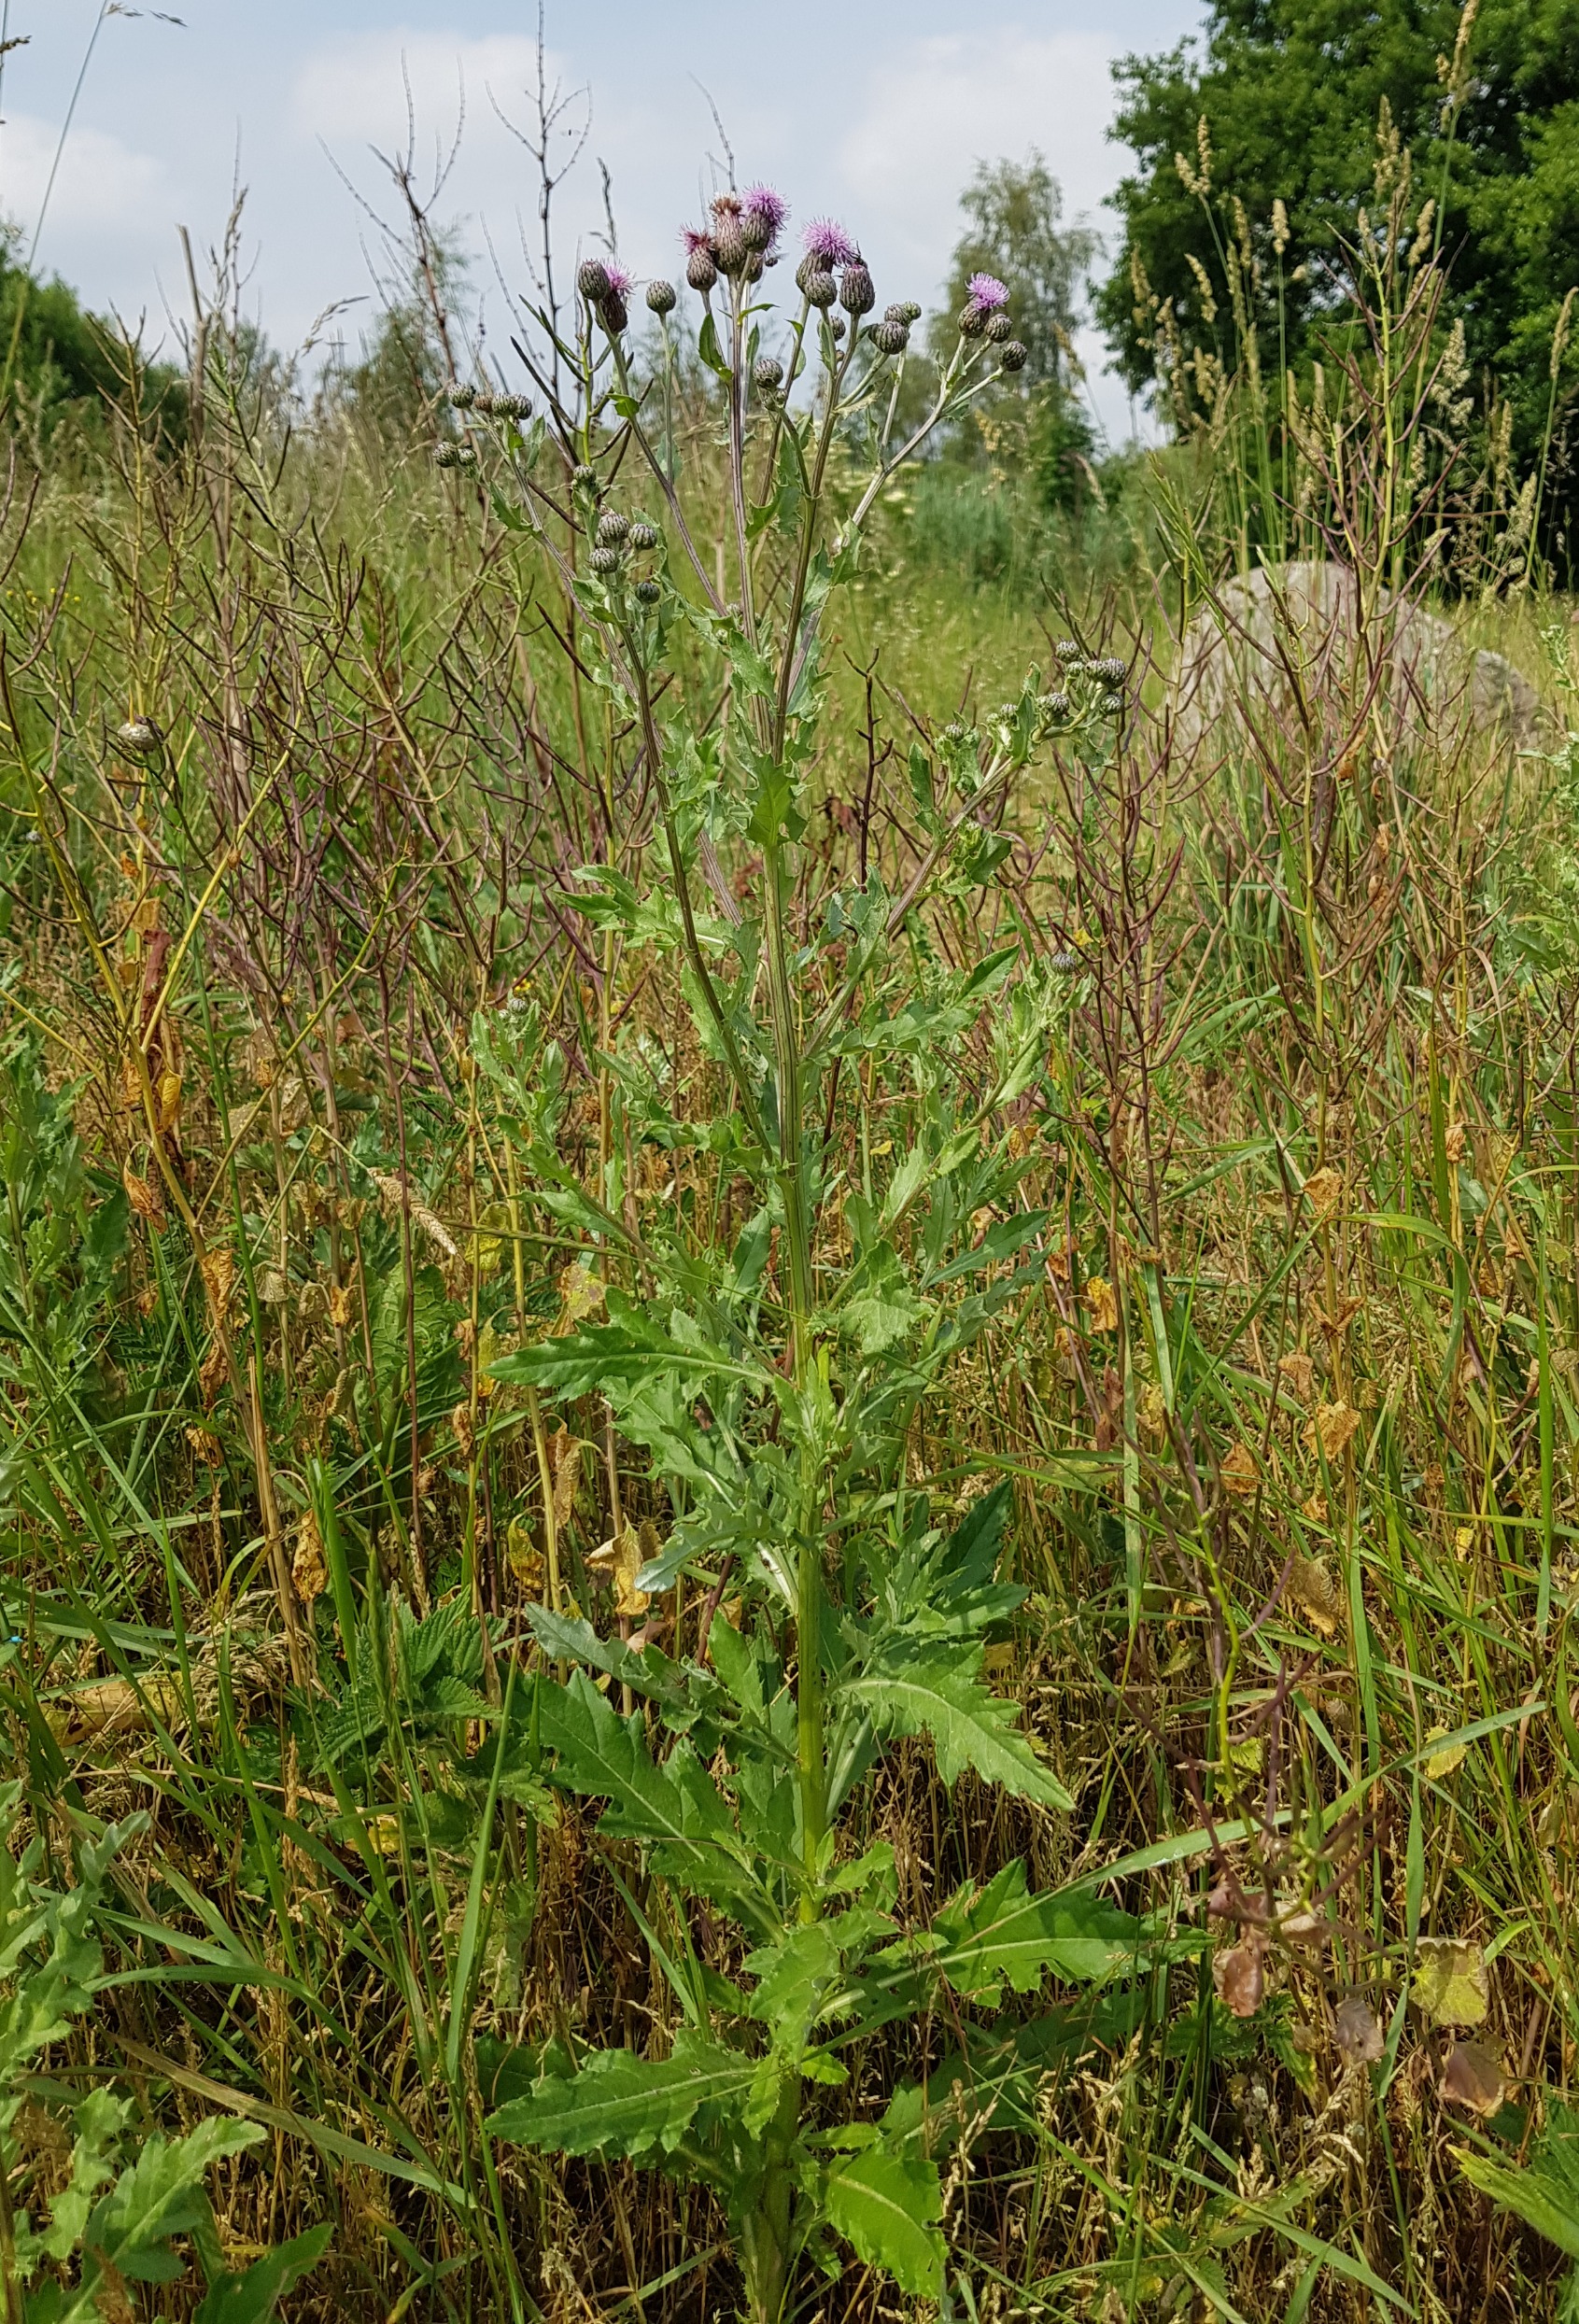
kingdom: Plantae
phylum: Tracheophyta
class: Magnoliopsida
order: Asterales
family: Asteraceae
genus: Cirsium
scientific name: Cirsium arvense
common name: Ager-tidsel
